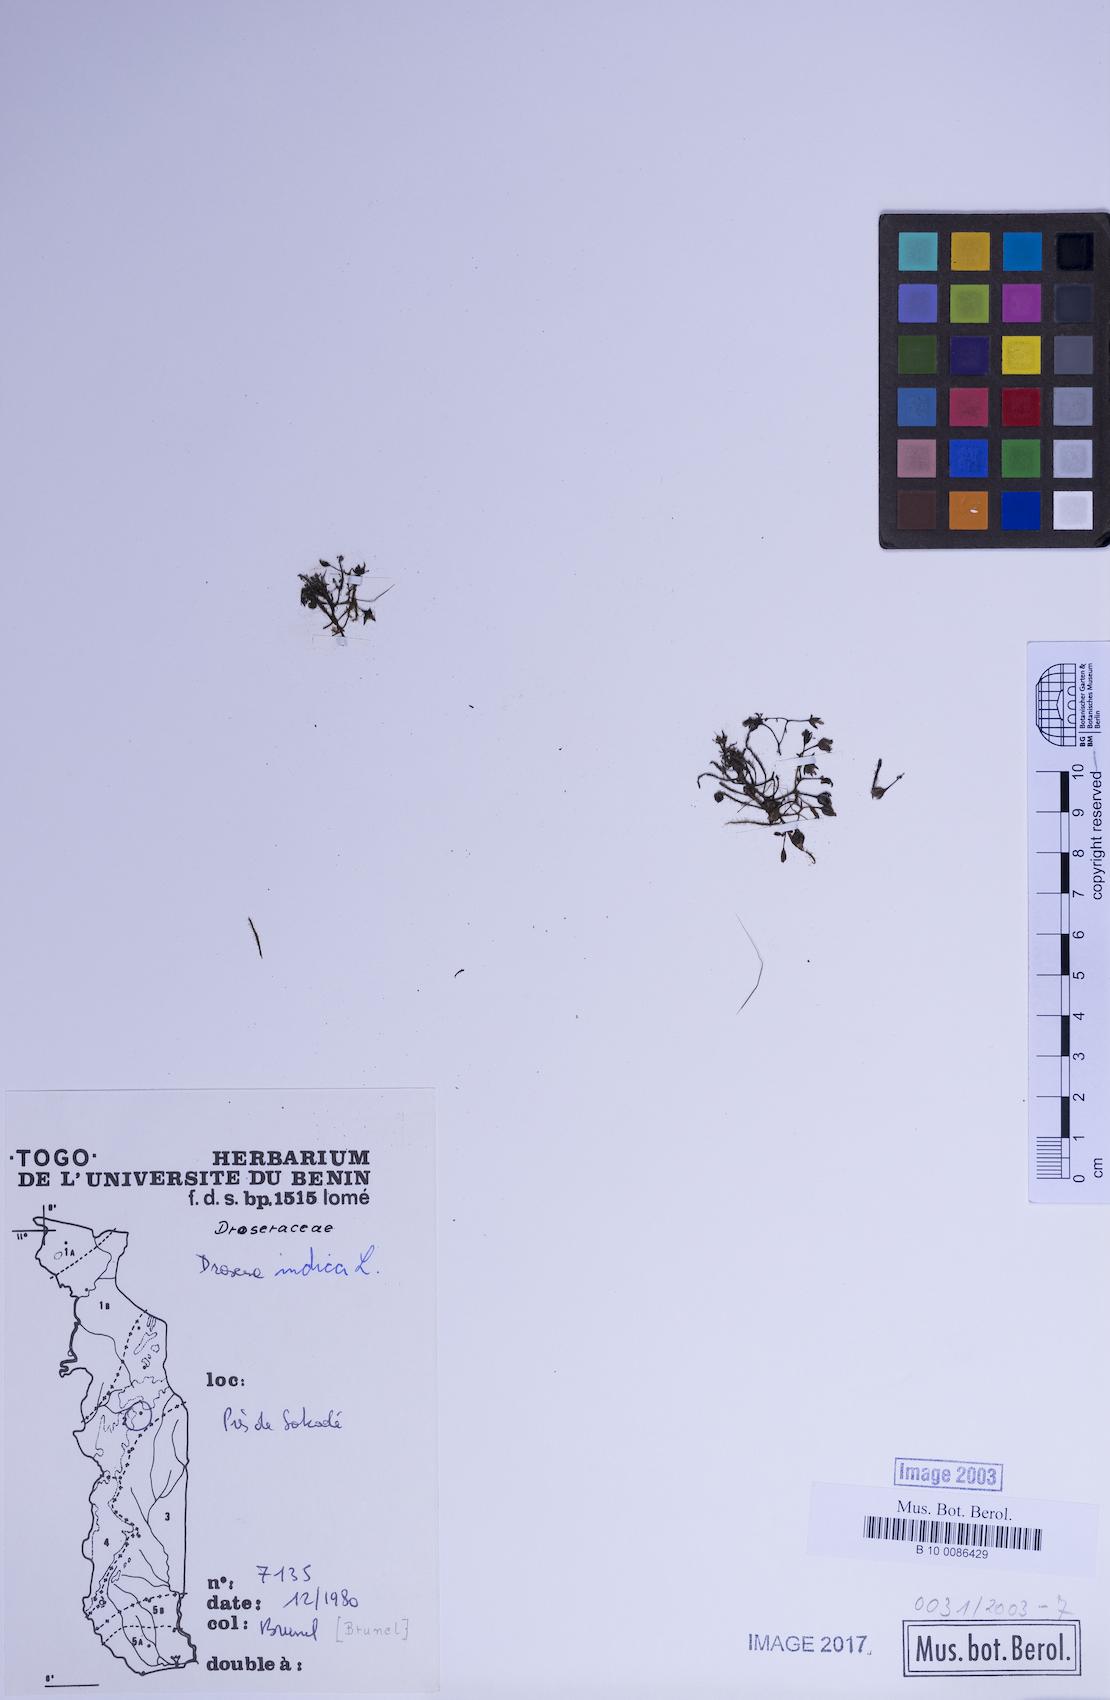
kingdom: Plantae
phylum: Tracheophyta
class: Magnoliopsida
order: Caryophyllales
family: Droseraceae
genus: Drosera
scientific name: Drosera indica
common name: Indian sundew
